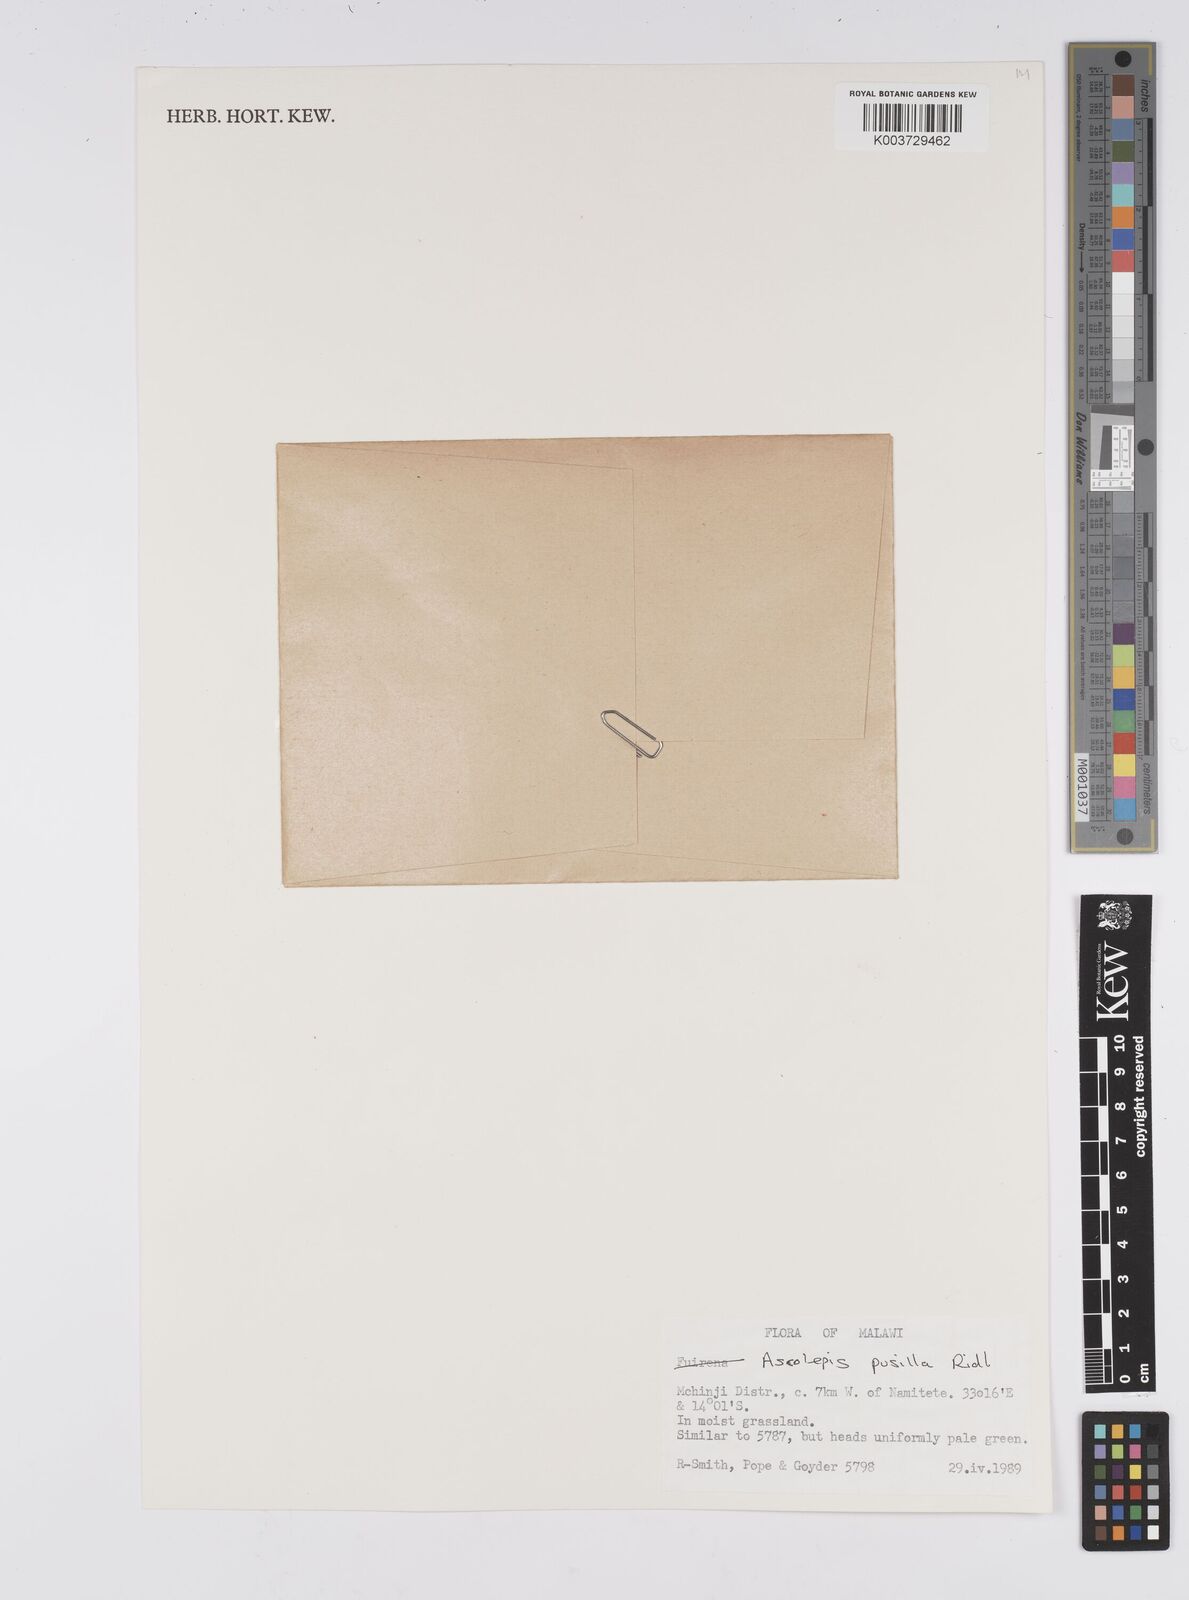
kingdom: Plantae
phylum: Tracheophyta
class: Liliopsida
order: Poales
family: Cyperaceae
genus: Cyperus
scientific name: Cyperus
